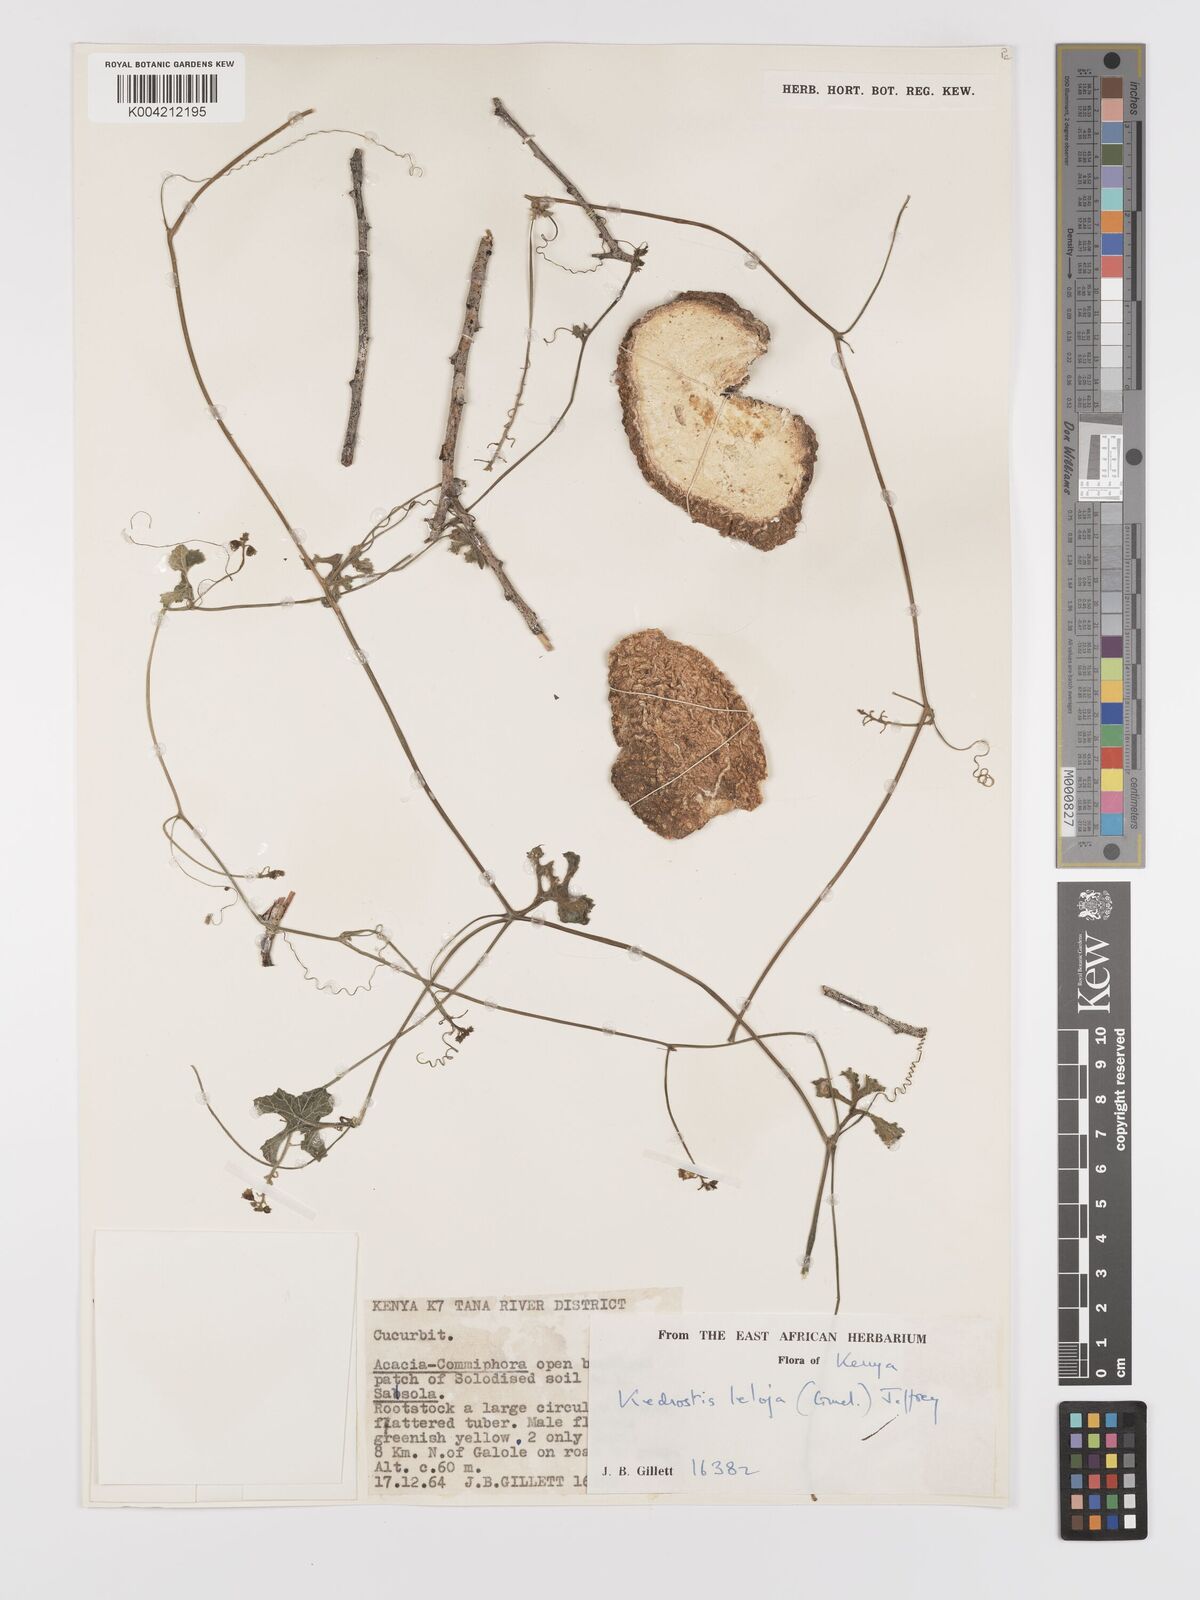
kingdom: Plantae
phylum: Tracheophyta
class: Magnoliopsida
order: Cucurbitales
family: Cucurbitaceae
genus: Kedrostis
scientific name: Kedrostis abdallae
